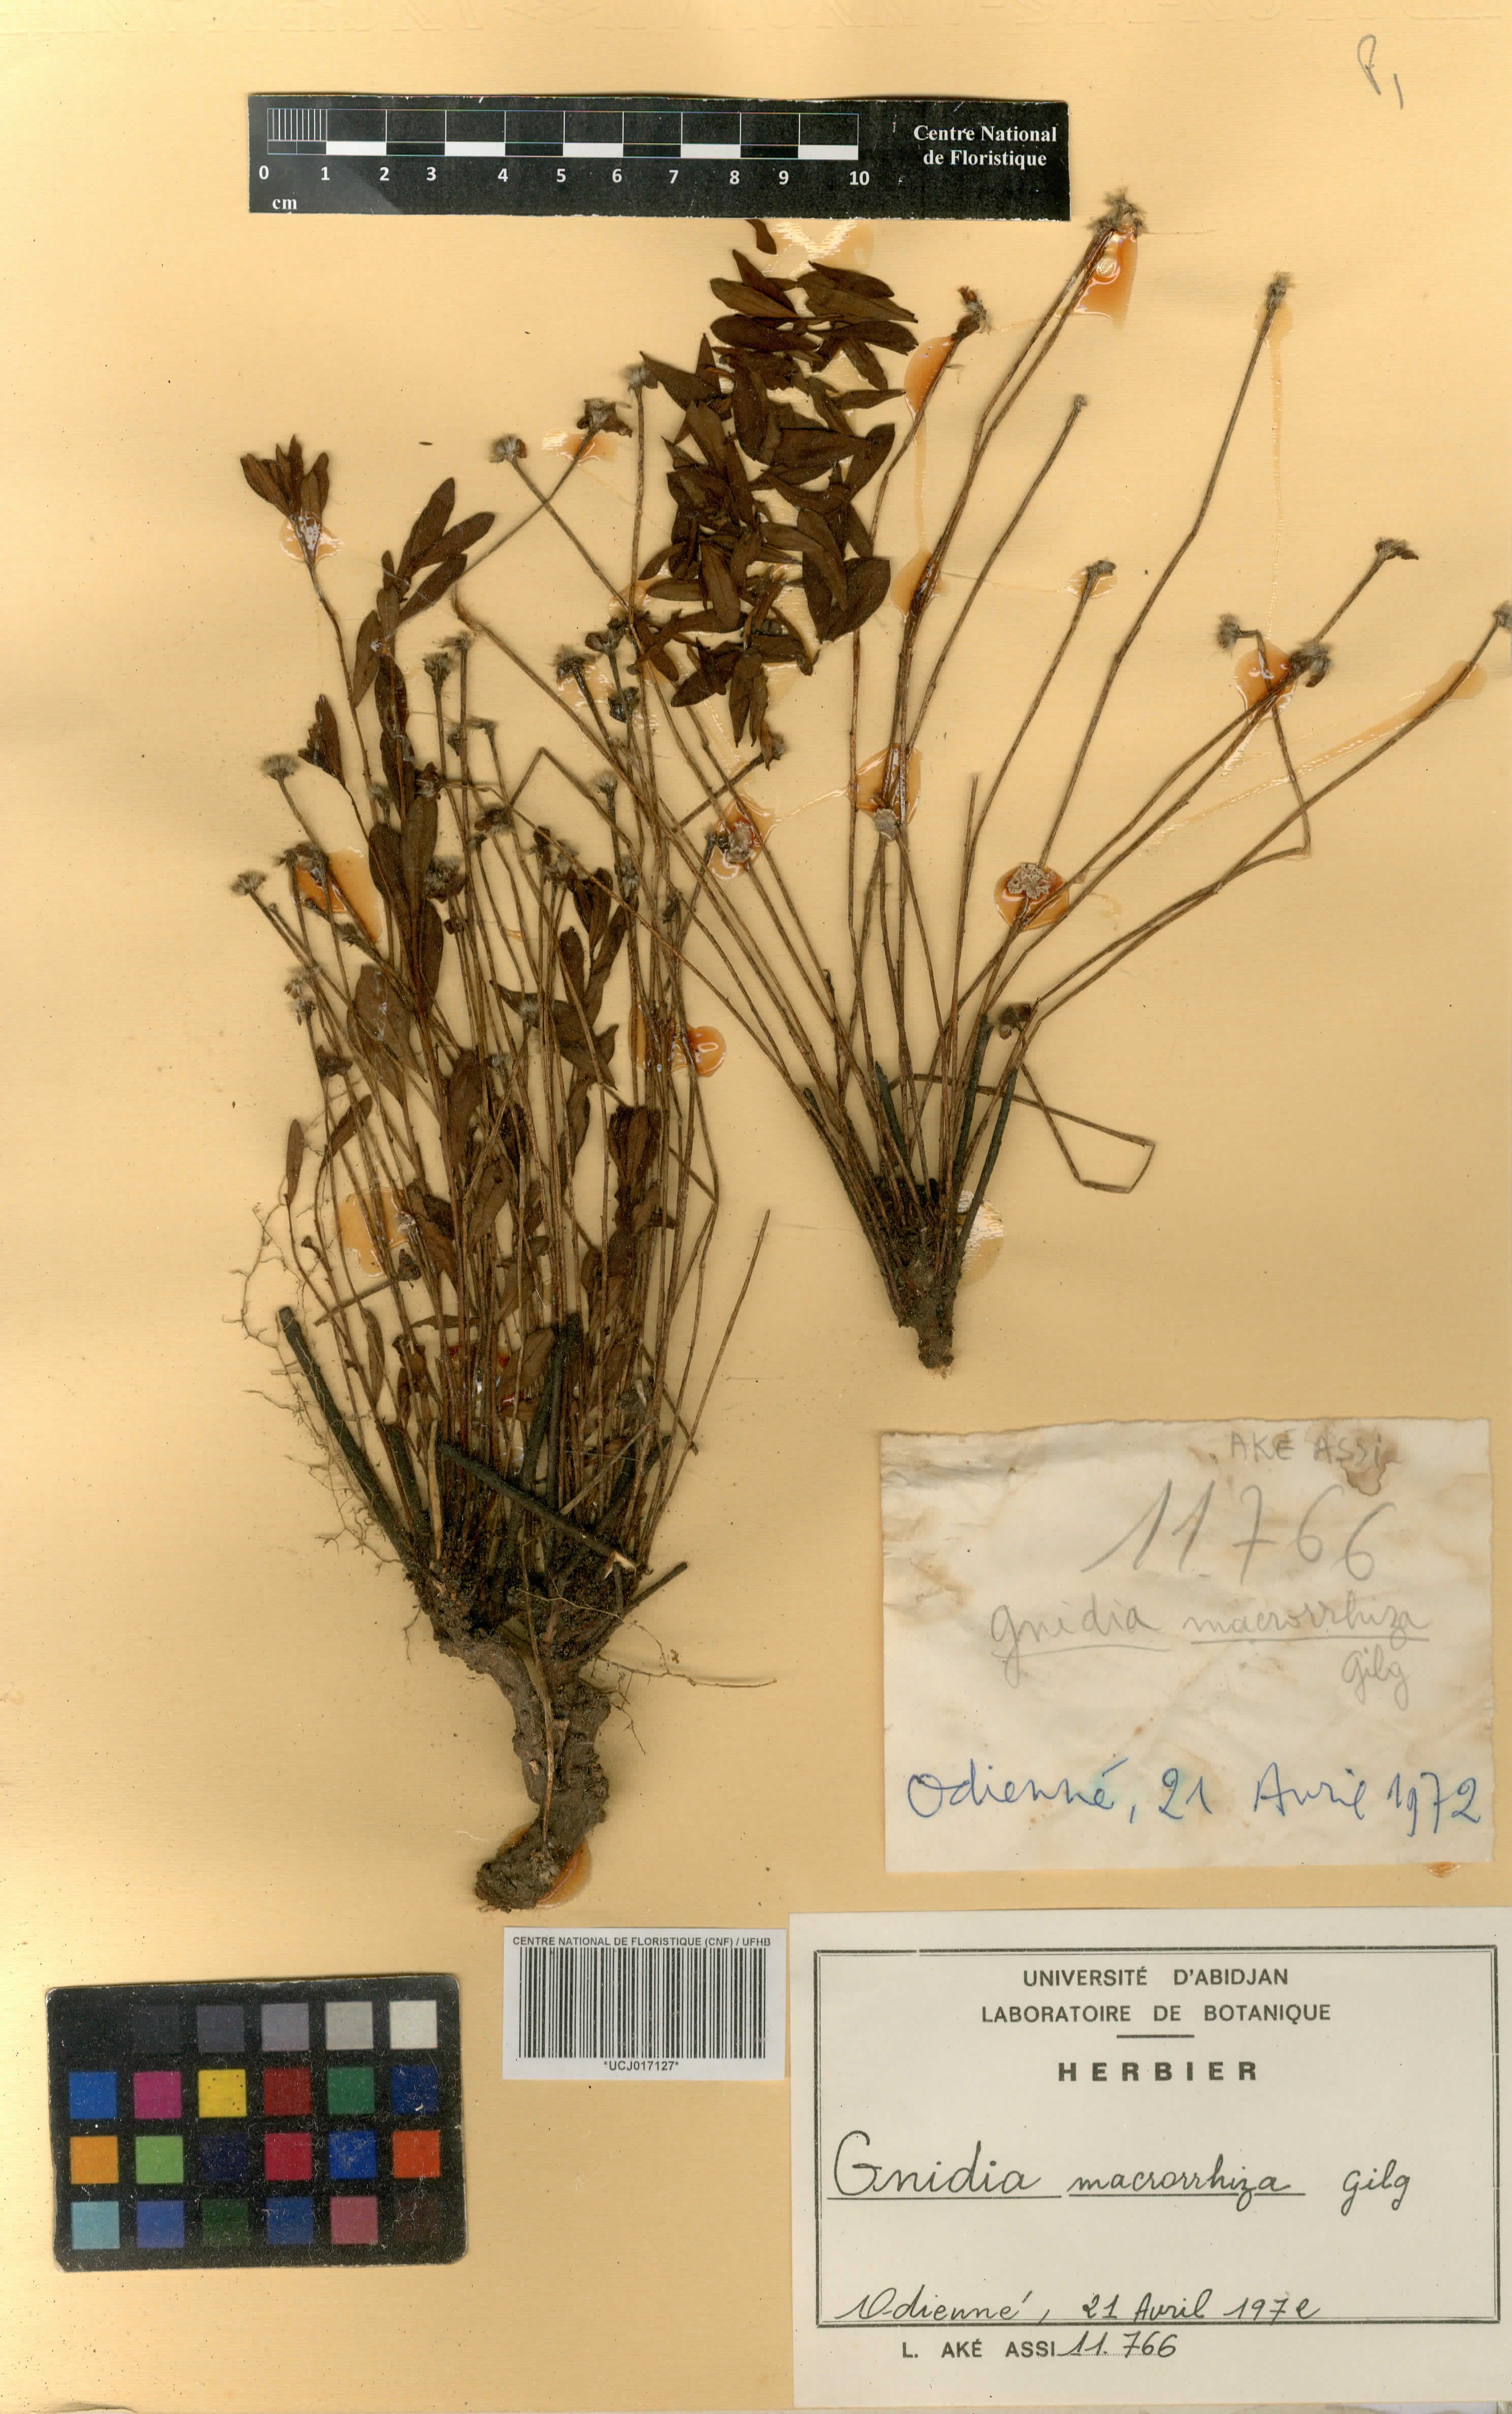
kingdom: Plantae
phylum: Tracheophyta
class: Magnoliopsida
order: Malvales
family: Thymelaeaceae
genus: Gnidia
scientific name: Gnidia involucrata
